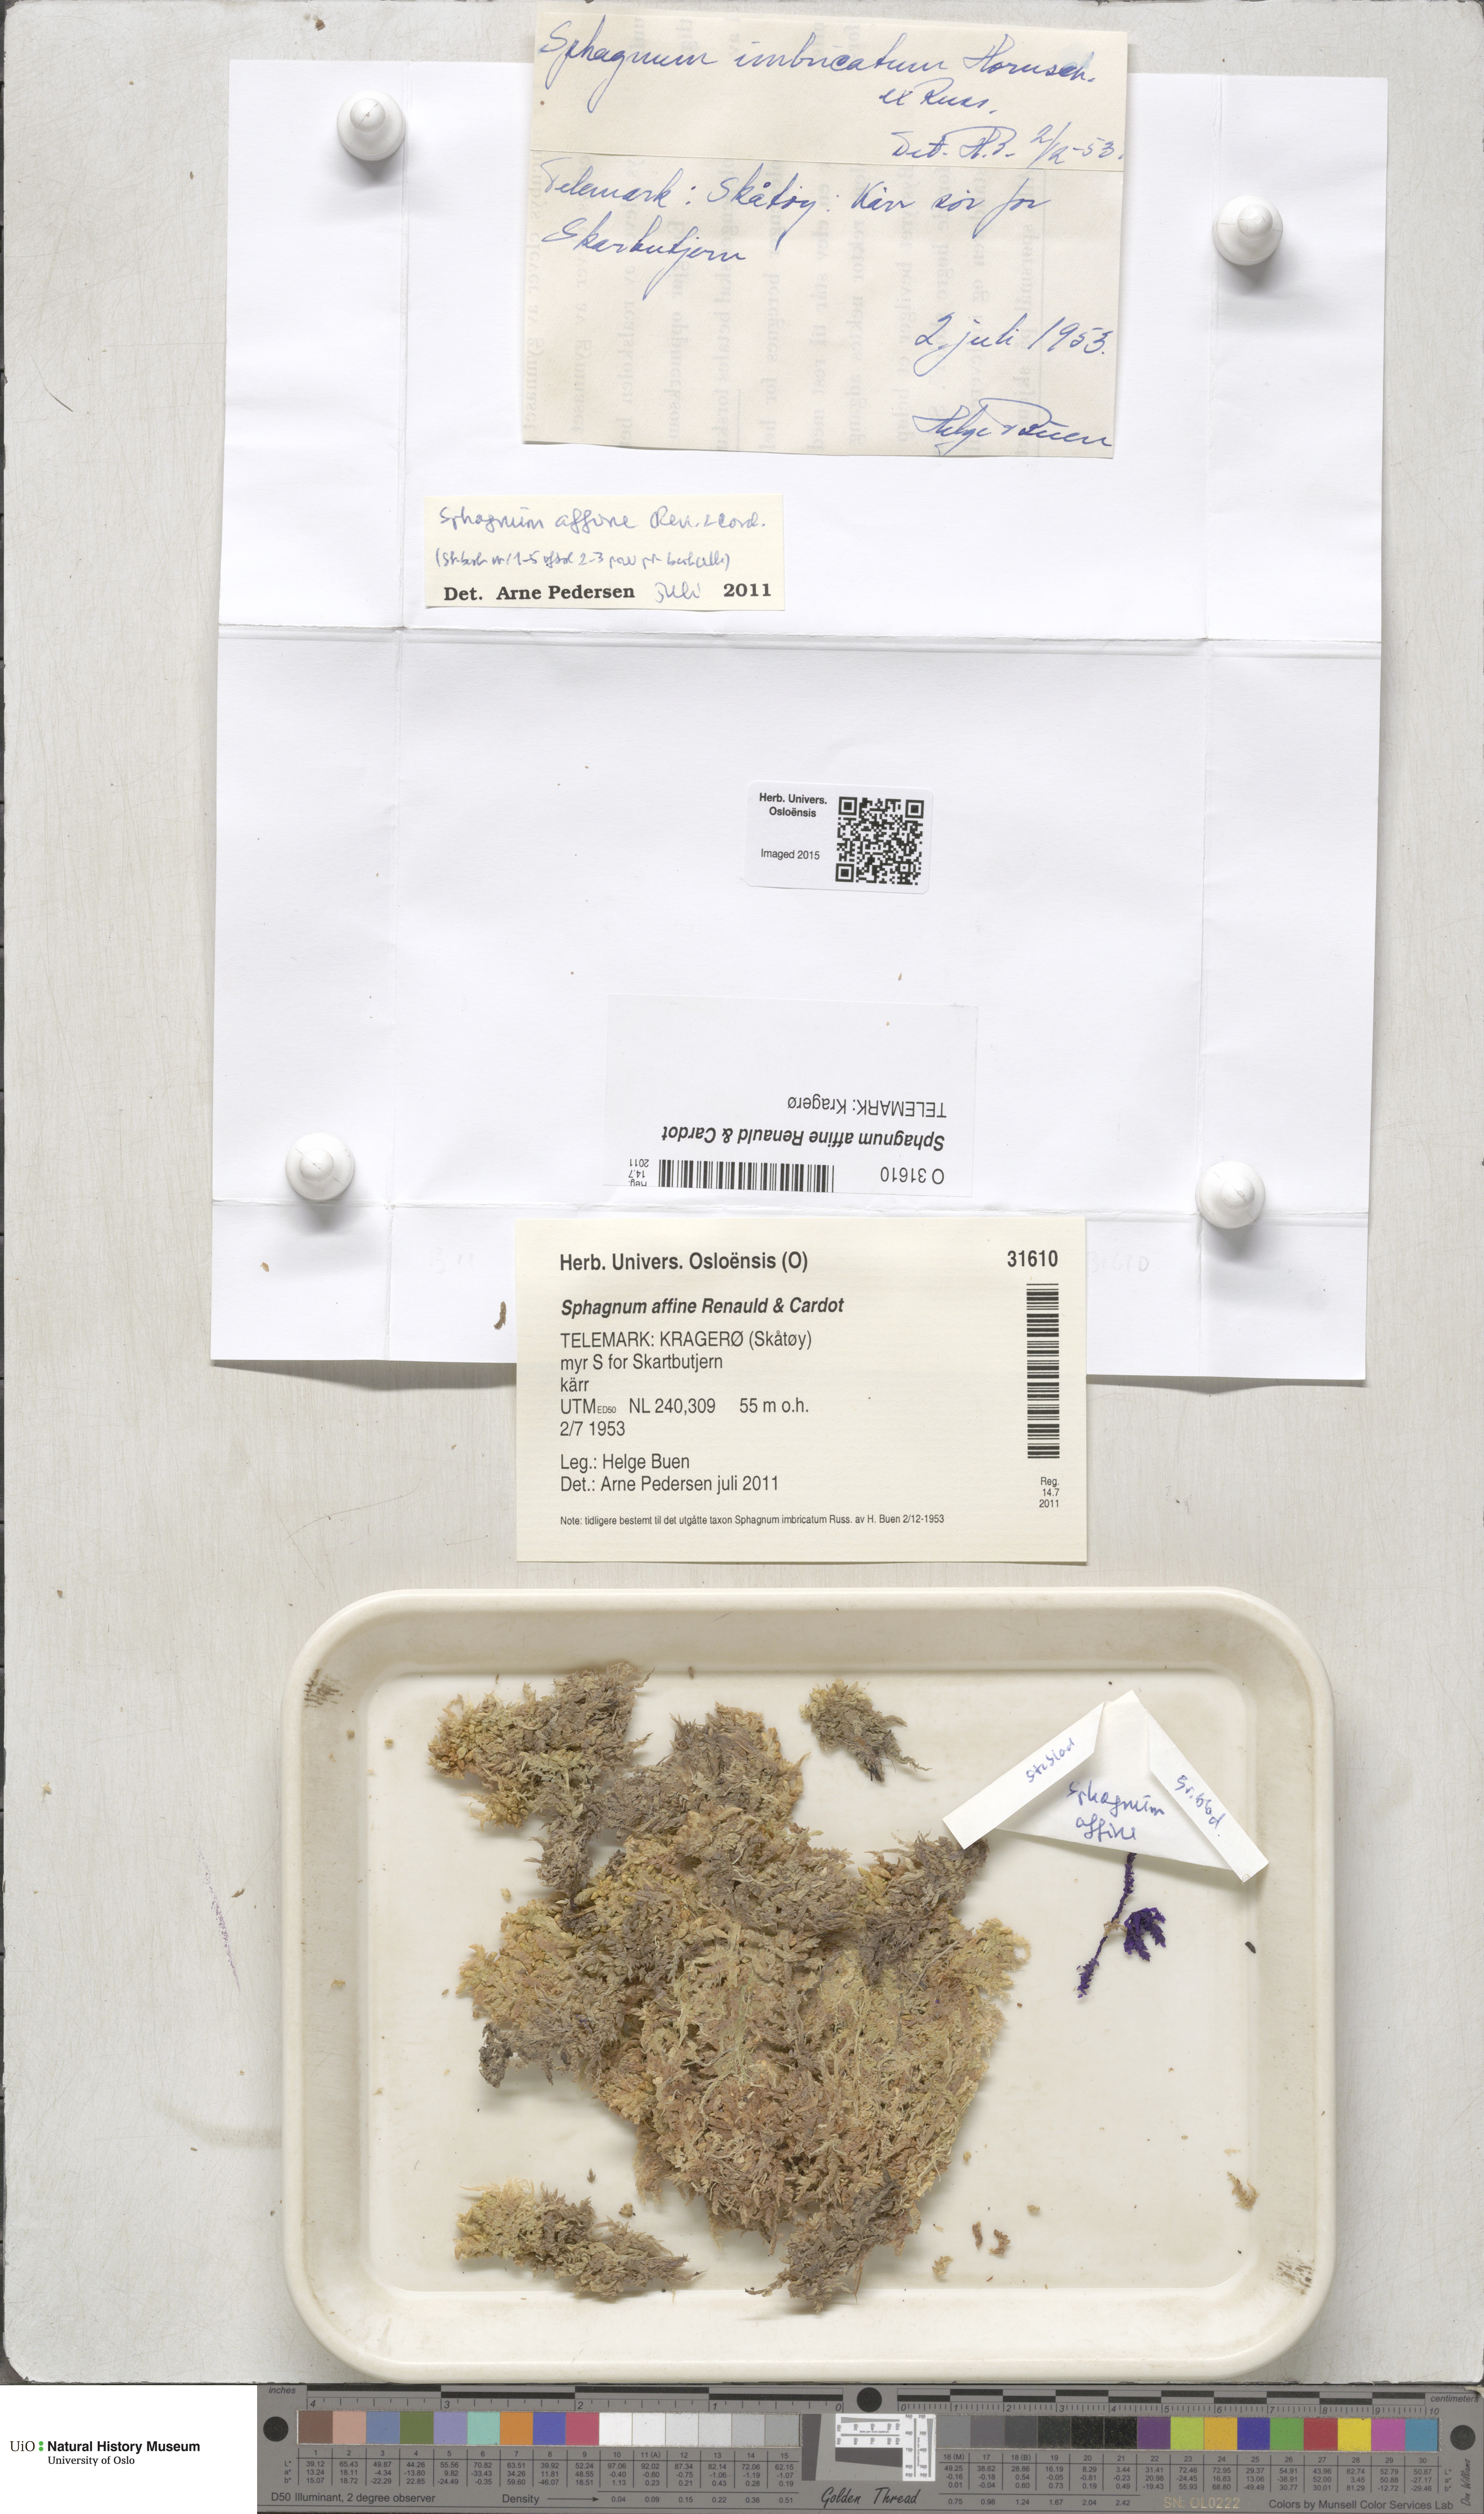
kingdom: Plantae
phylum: Bryophyta
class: Sphagnopsida
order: Sphagnales
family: Sphagnaceae
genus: Sphagnum
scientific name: Sphagnum affine
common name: Imbricate peat moss
